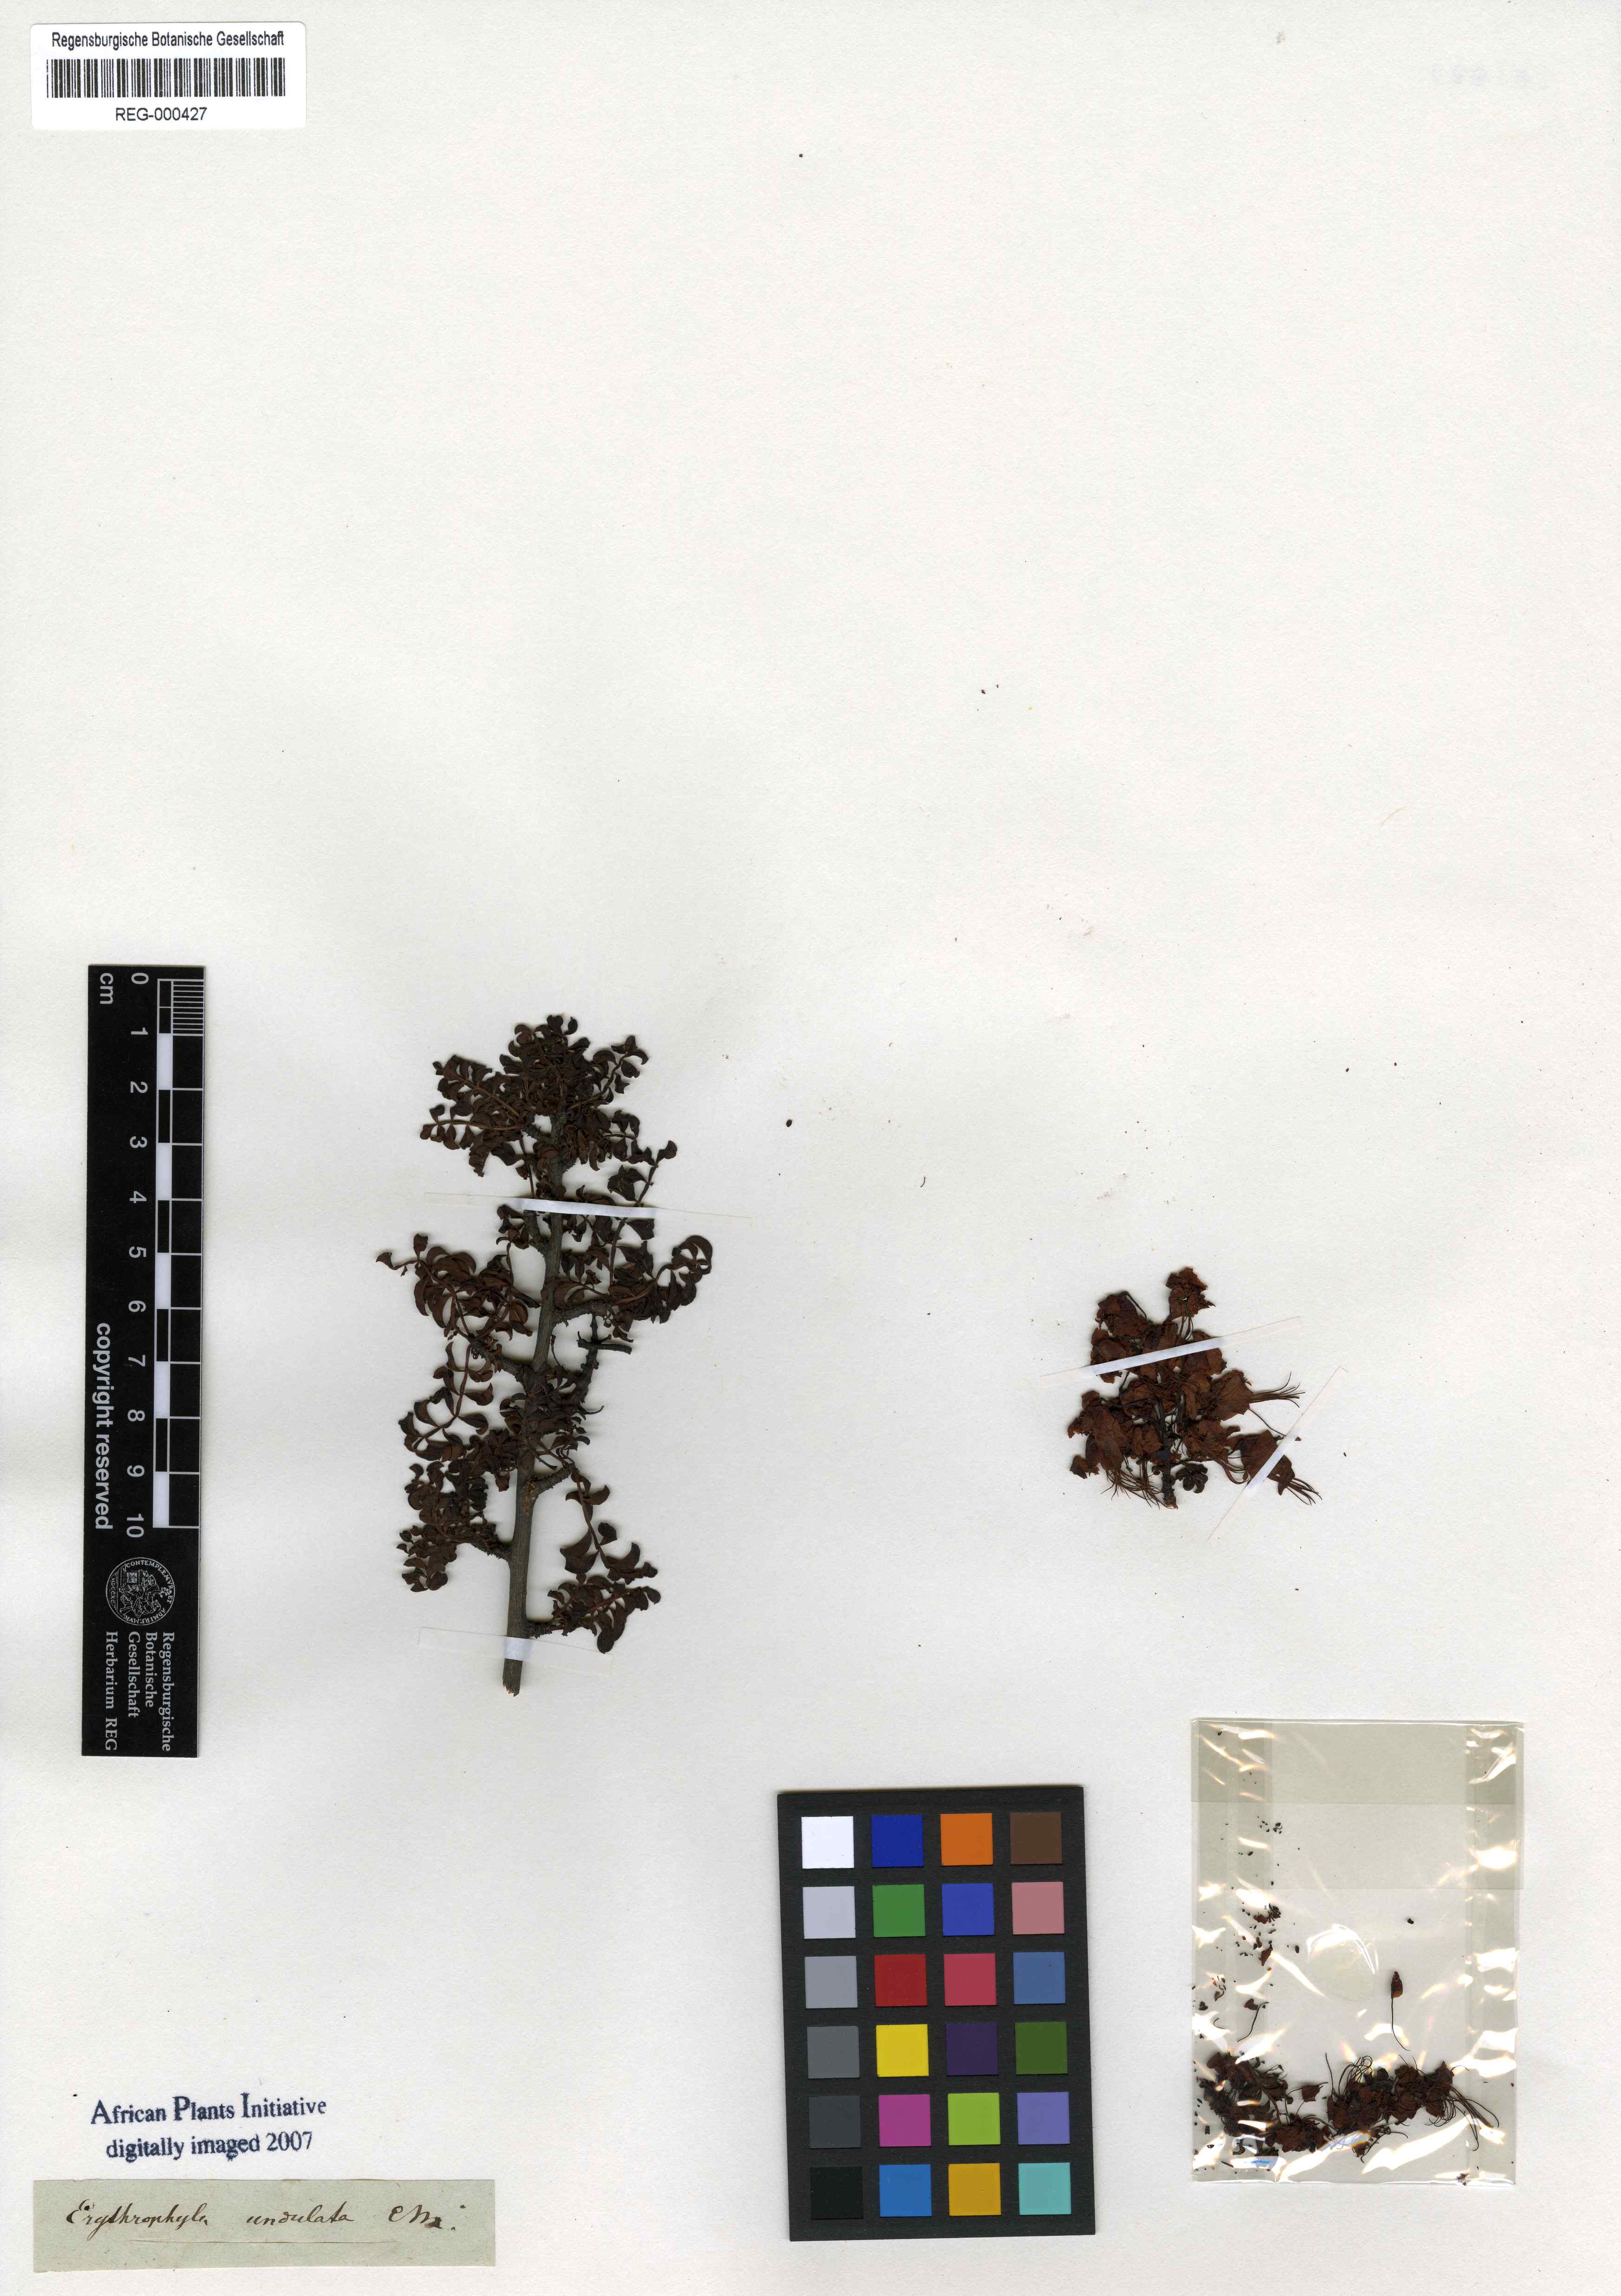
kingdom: Plantae
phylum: Tracheophyta
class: Magnoliopsida
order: Sapindales
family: Sapindaceae
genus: Erythrophysa
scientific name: Erythrophysa alata
